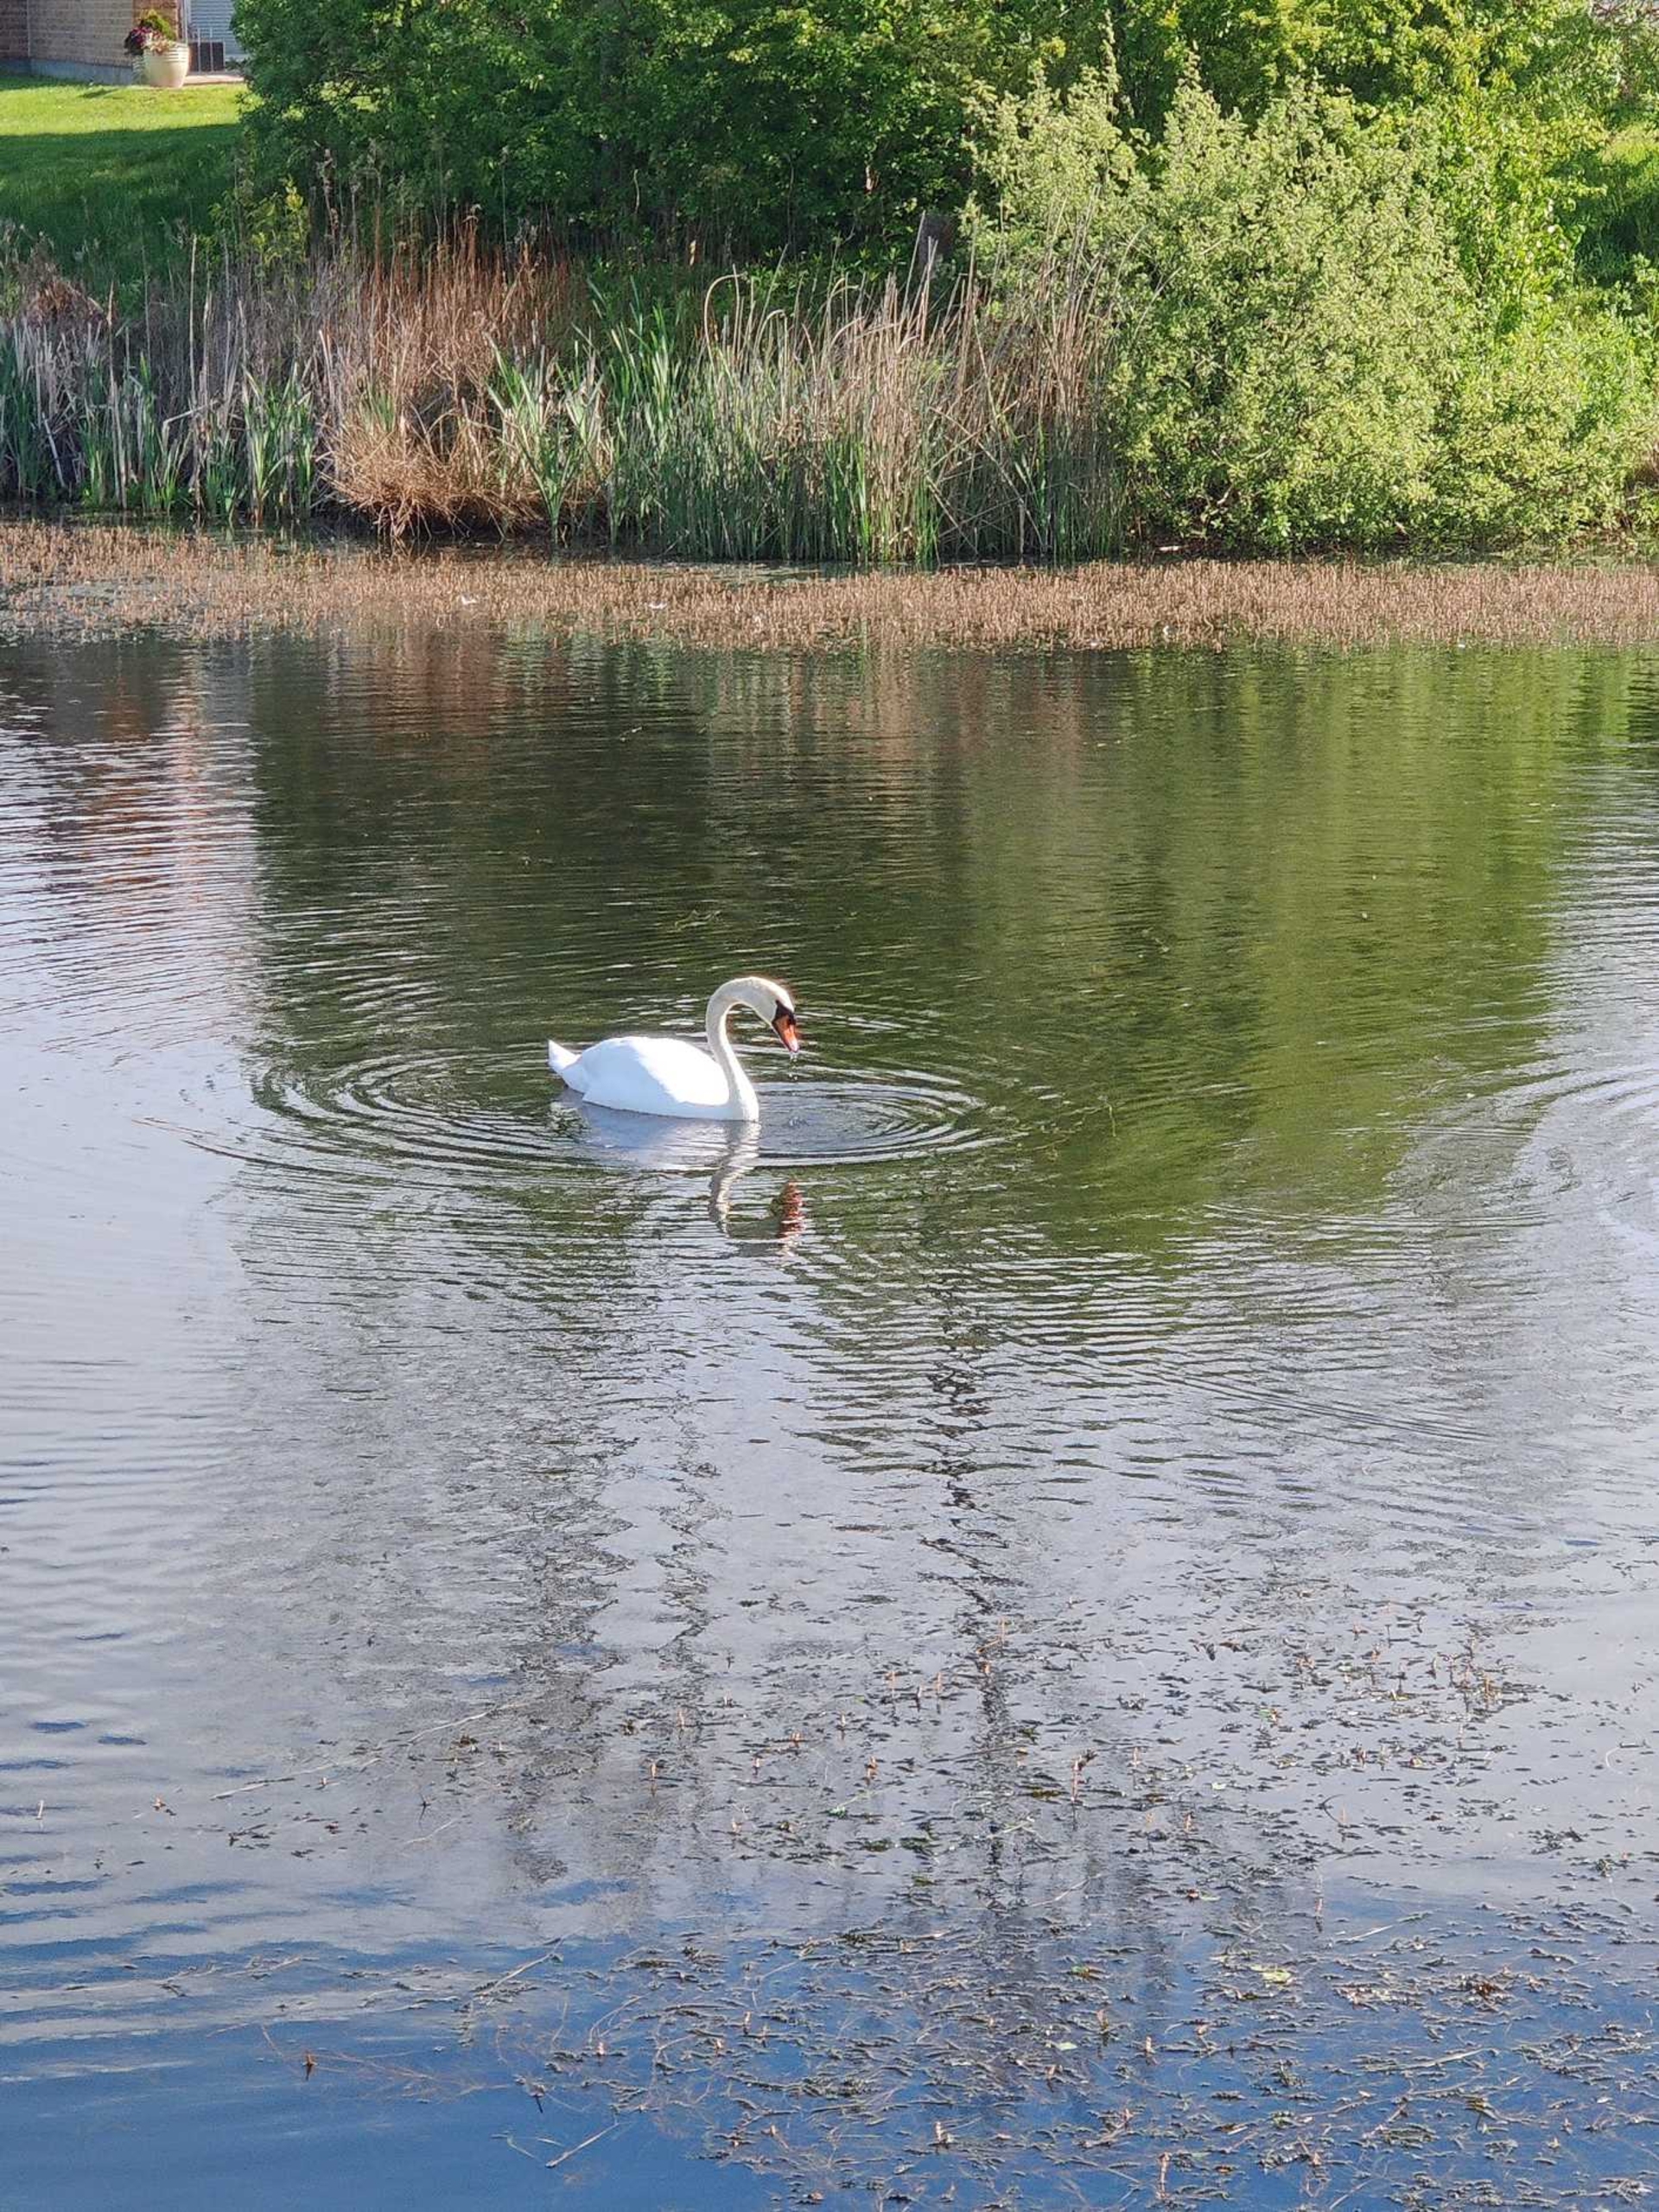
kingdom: Animalia
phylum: Chordata
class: Aves
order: Anseriformes
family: Anatidae
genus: Cygnus
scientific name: Cygnus olor
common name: Knopsvane
